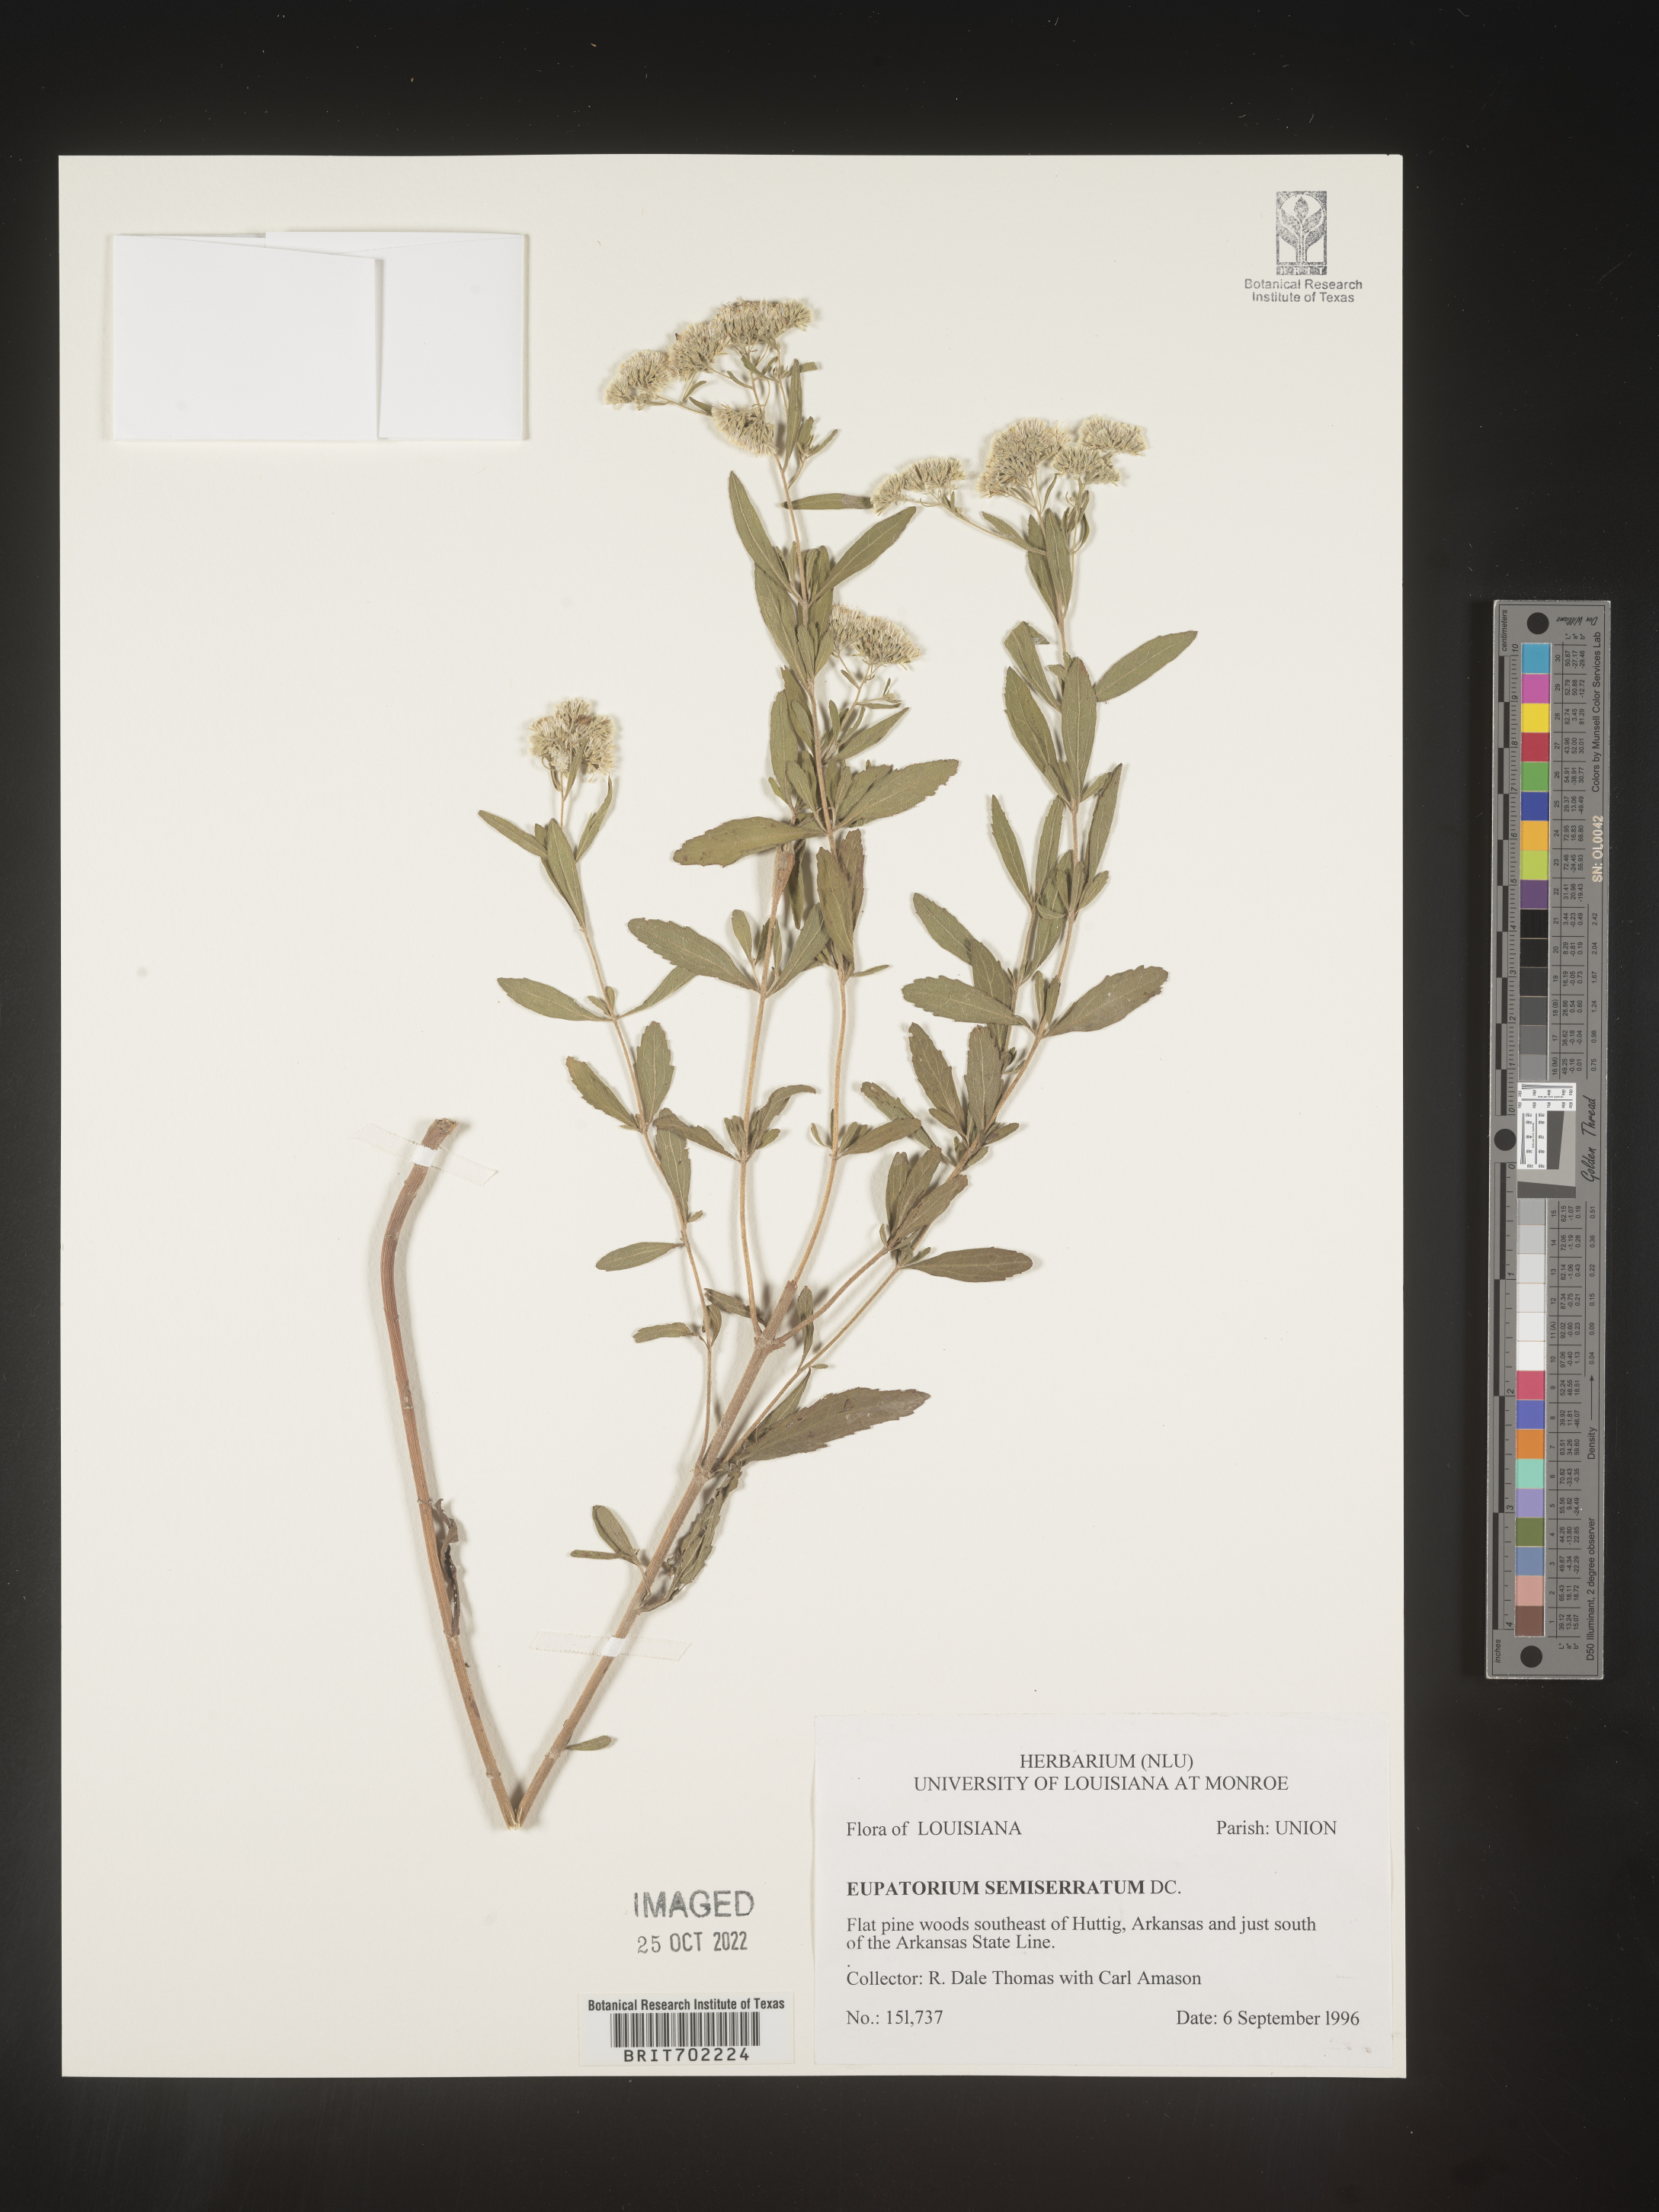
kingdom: Plantae
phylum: Tracheophyta
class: Magnoliopsida
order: Asterales
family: Asteraceae
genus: Eupatorium
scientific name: Eupatorium semiserratum
